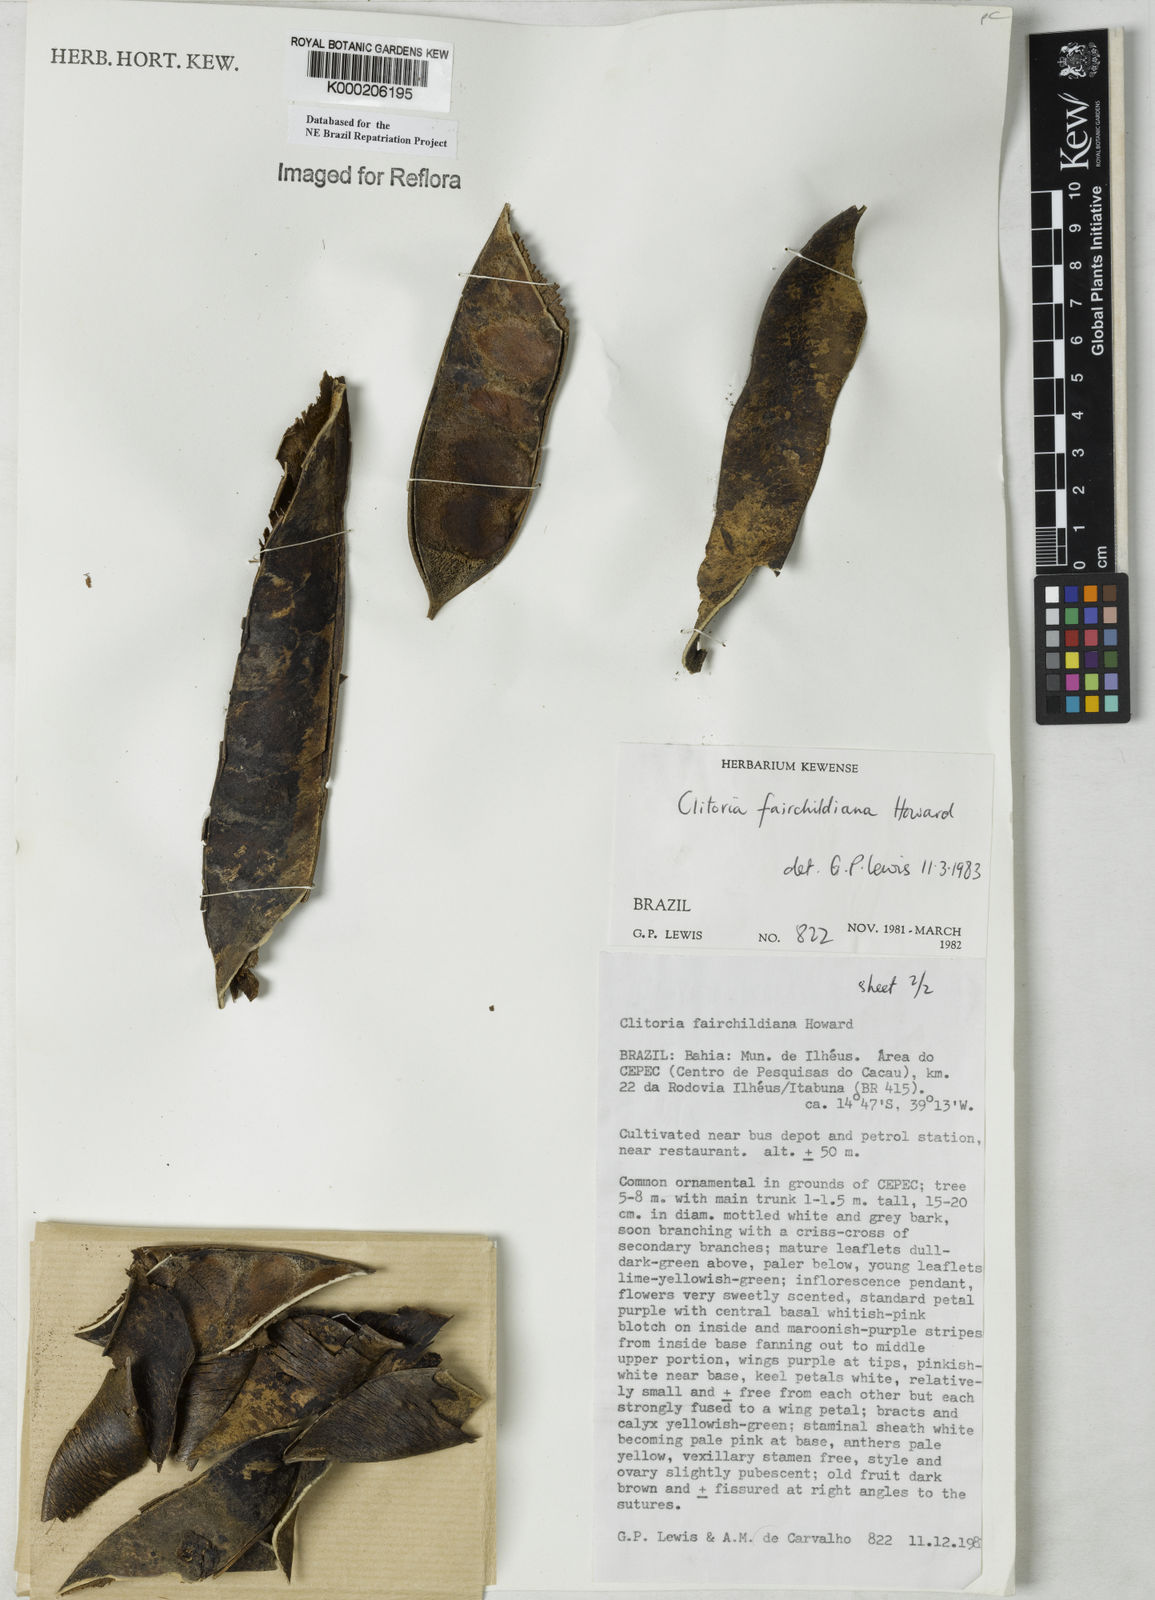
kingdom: Plantae
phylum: Tracheophyta
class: Magnoliopsida
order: Fabales
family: Fabaceae
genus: Clitoria
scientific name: Clitoria fairchildiana
